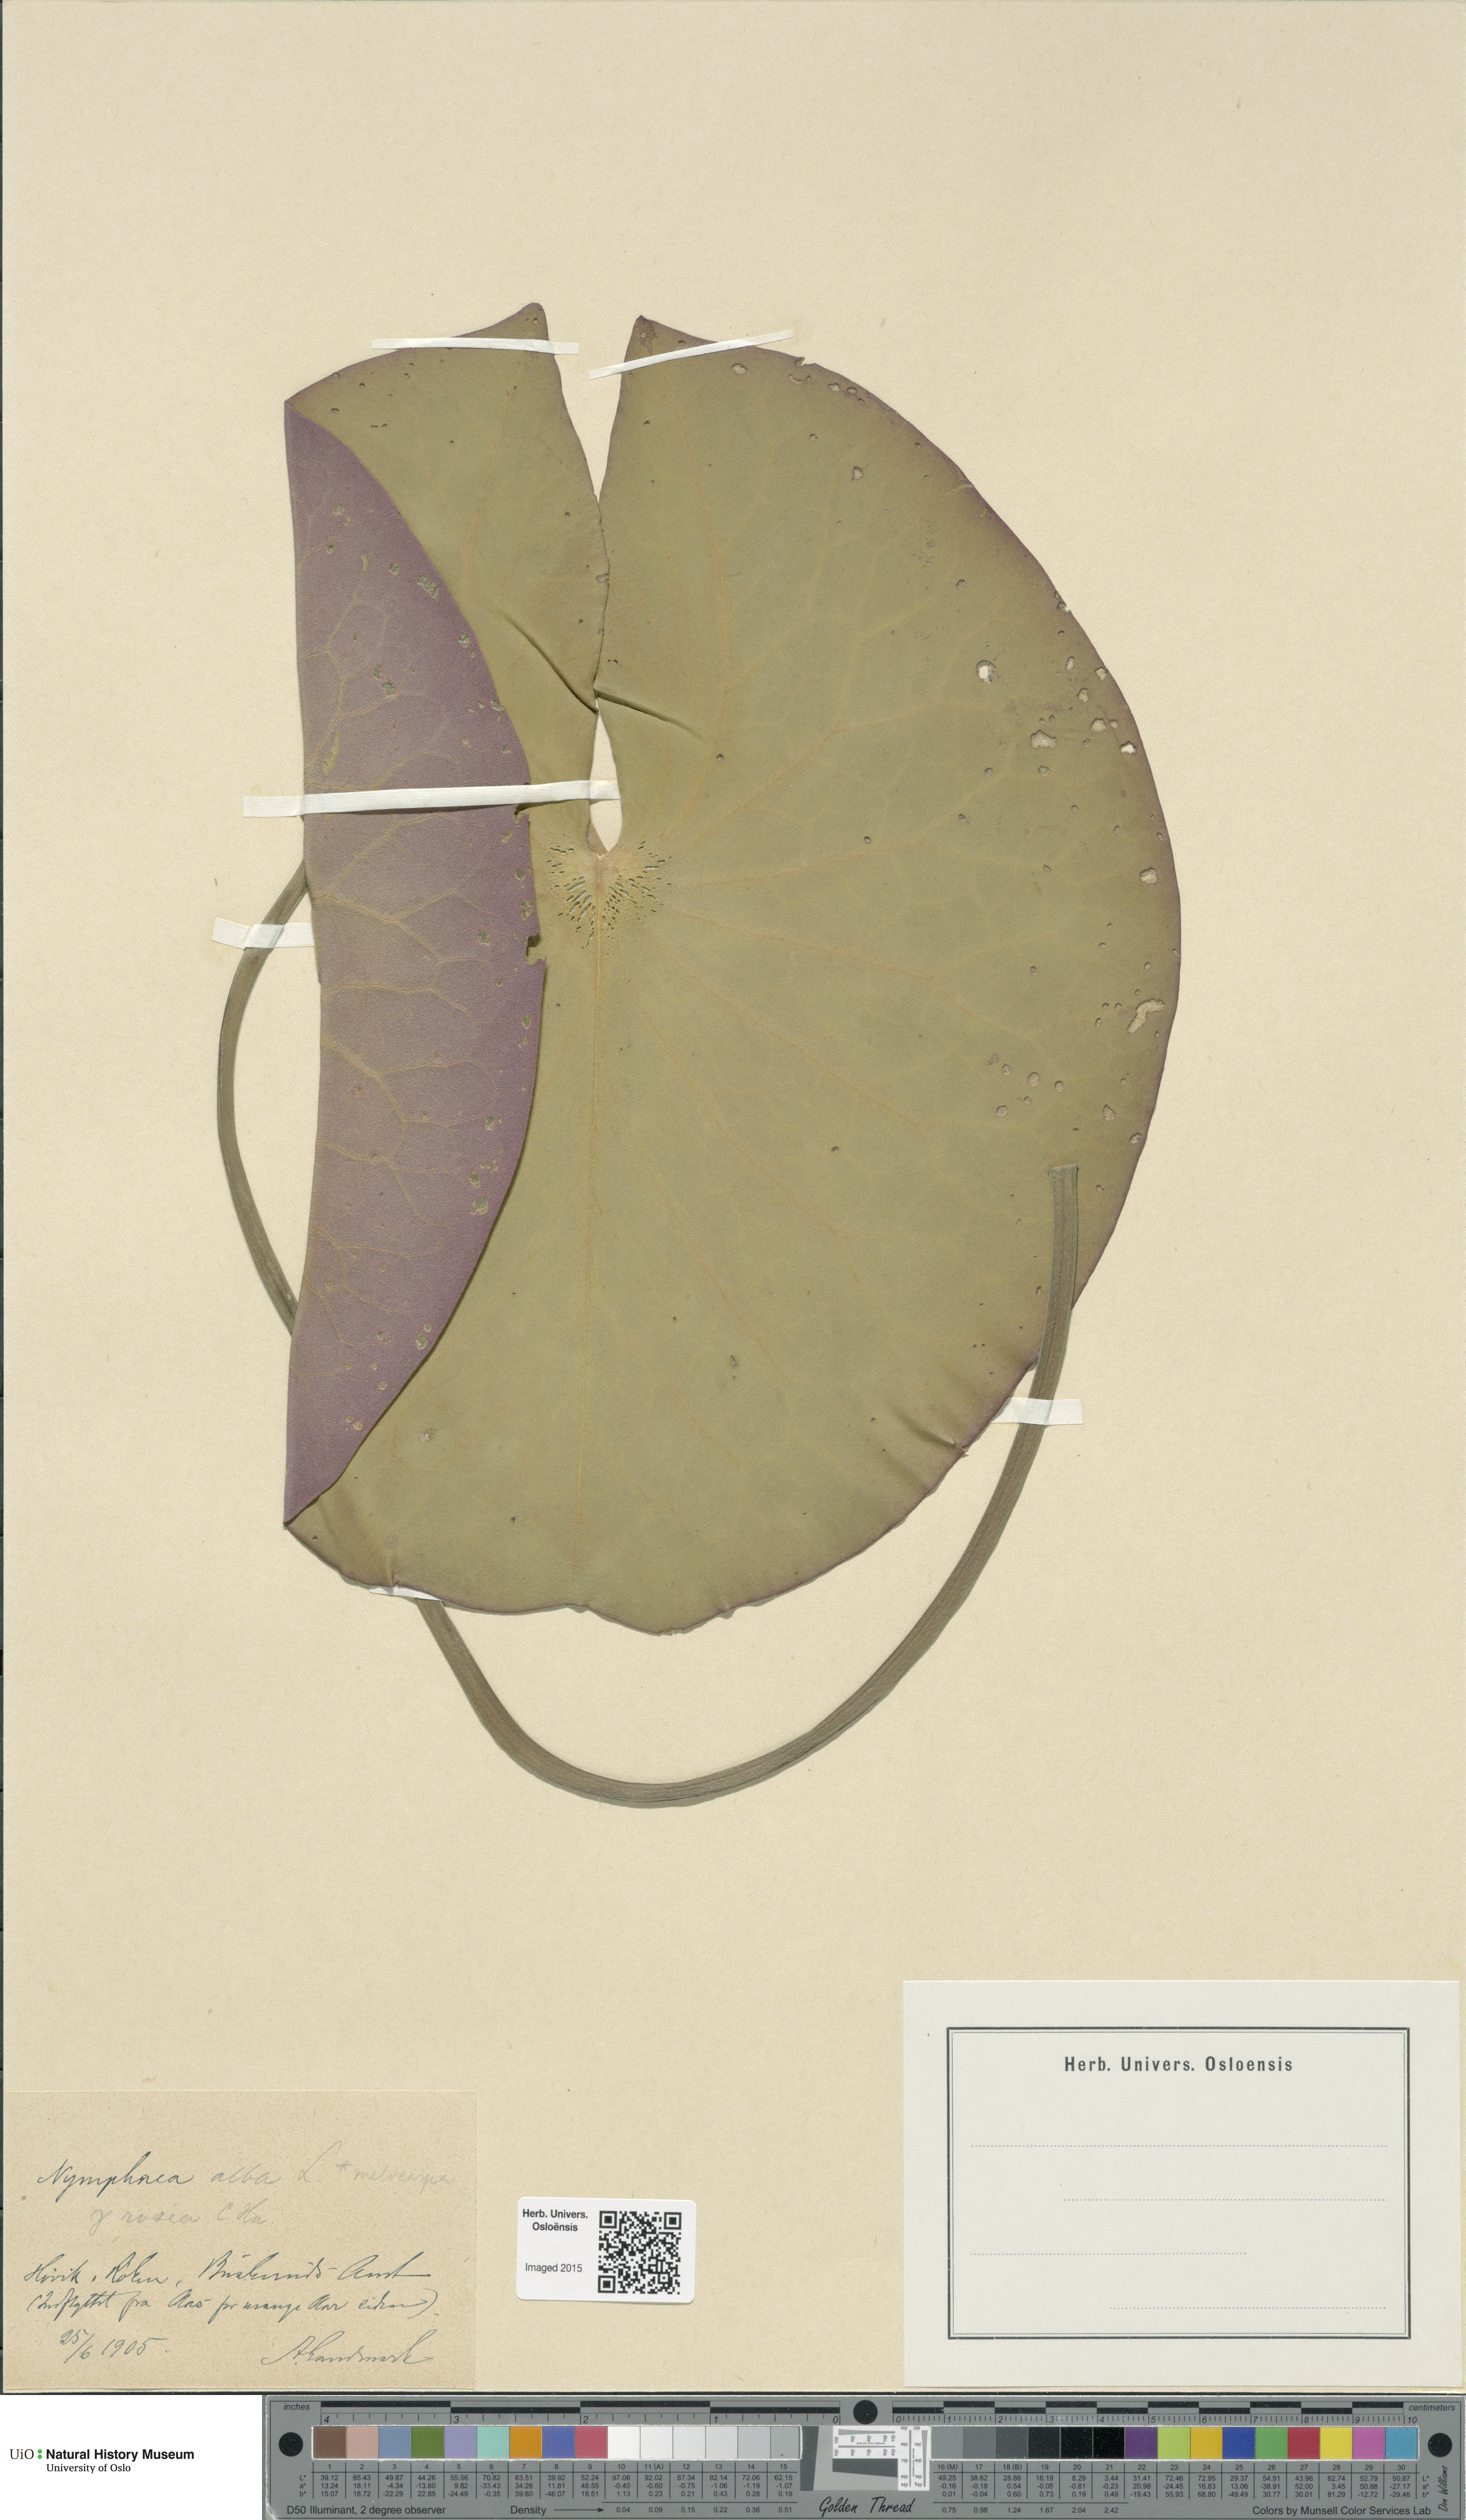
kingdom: Plantae
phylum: Tracheophyta
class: Magnoliopsida
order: Nymphaeales
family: Nymphaeaceae
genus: Nymphaea
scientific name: Nymphaea alba
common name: White water-lily
